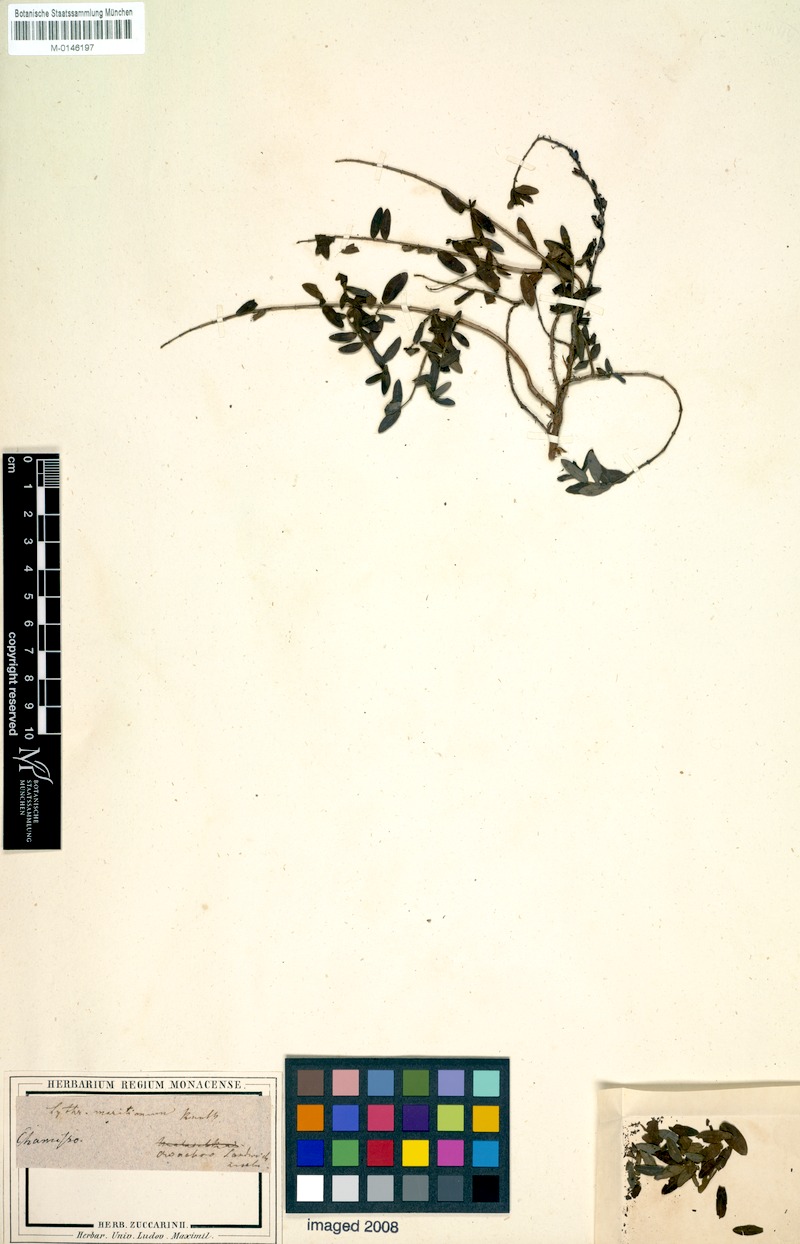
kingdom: Plantae
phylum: Tracheophyta
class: Magnoliopsida
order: Myrtales
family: Lythraceae
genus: Lythrum
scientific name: Lythrum maritimum
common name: Pukamole
